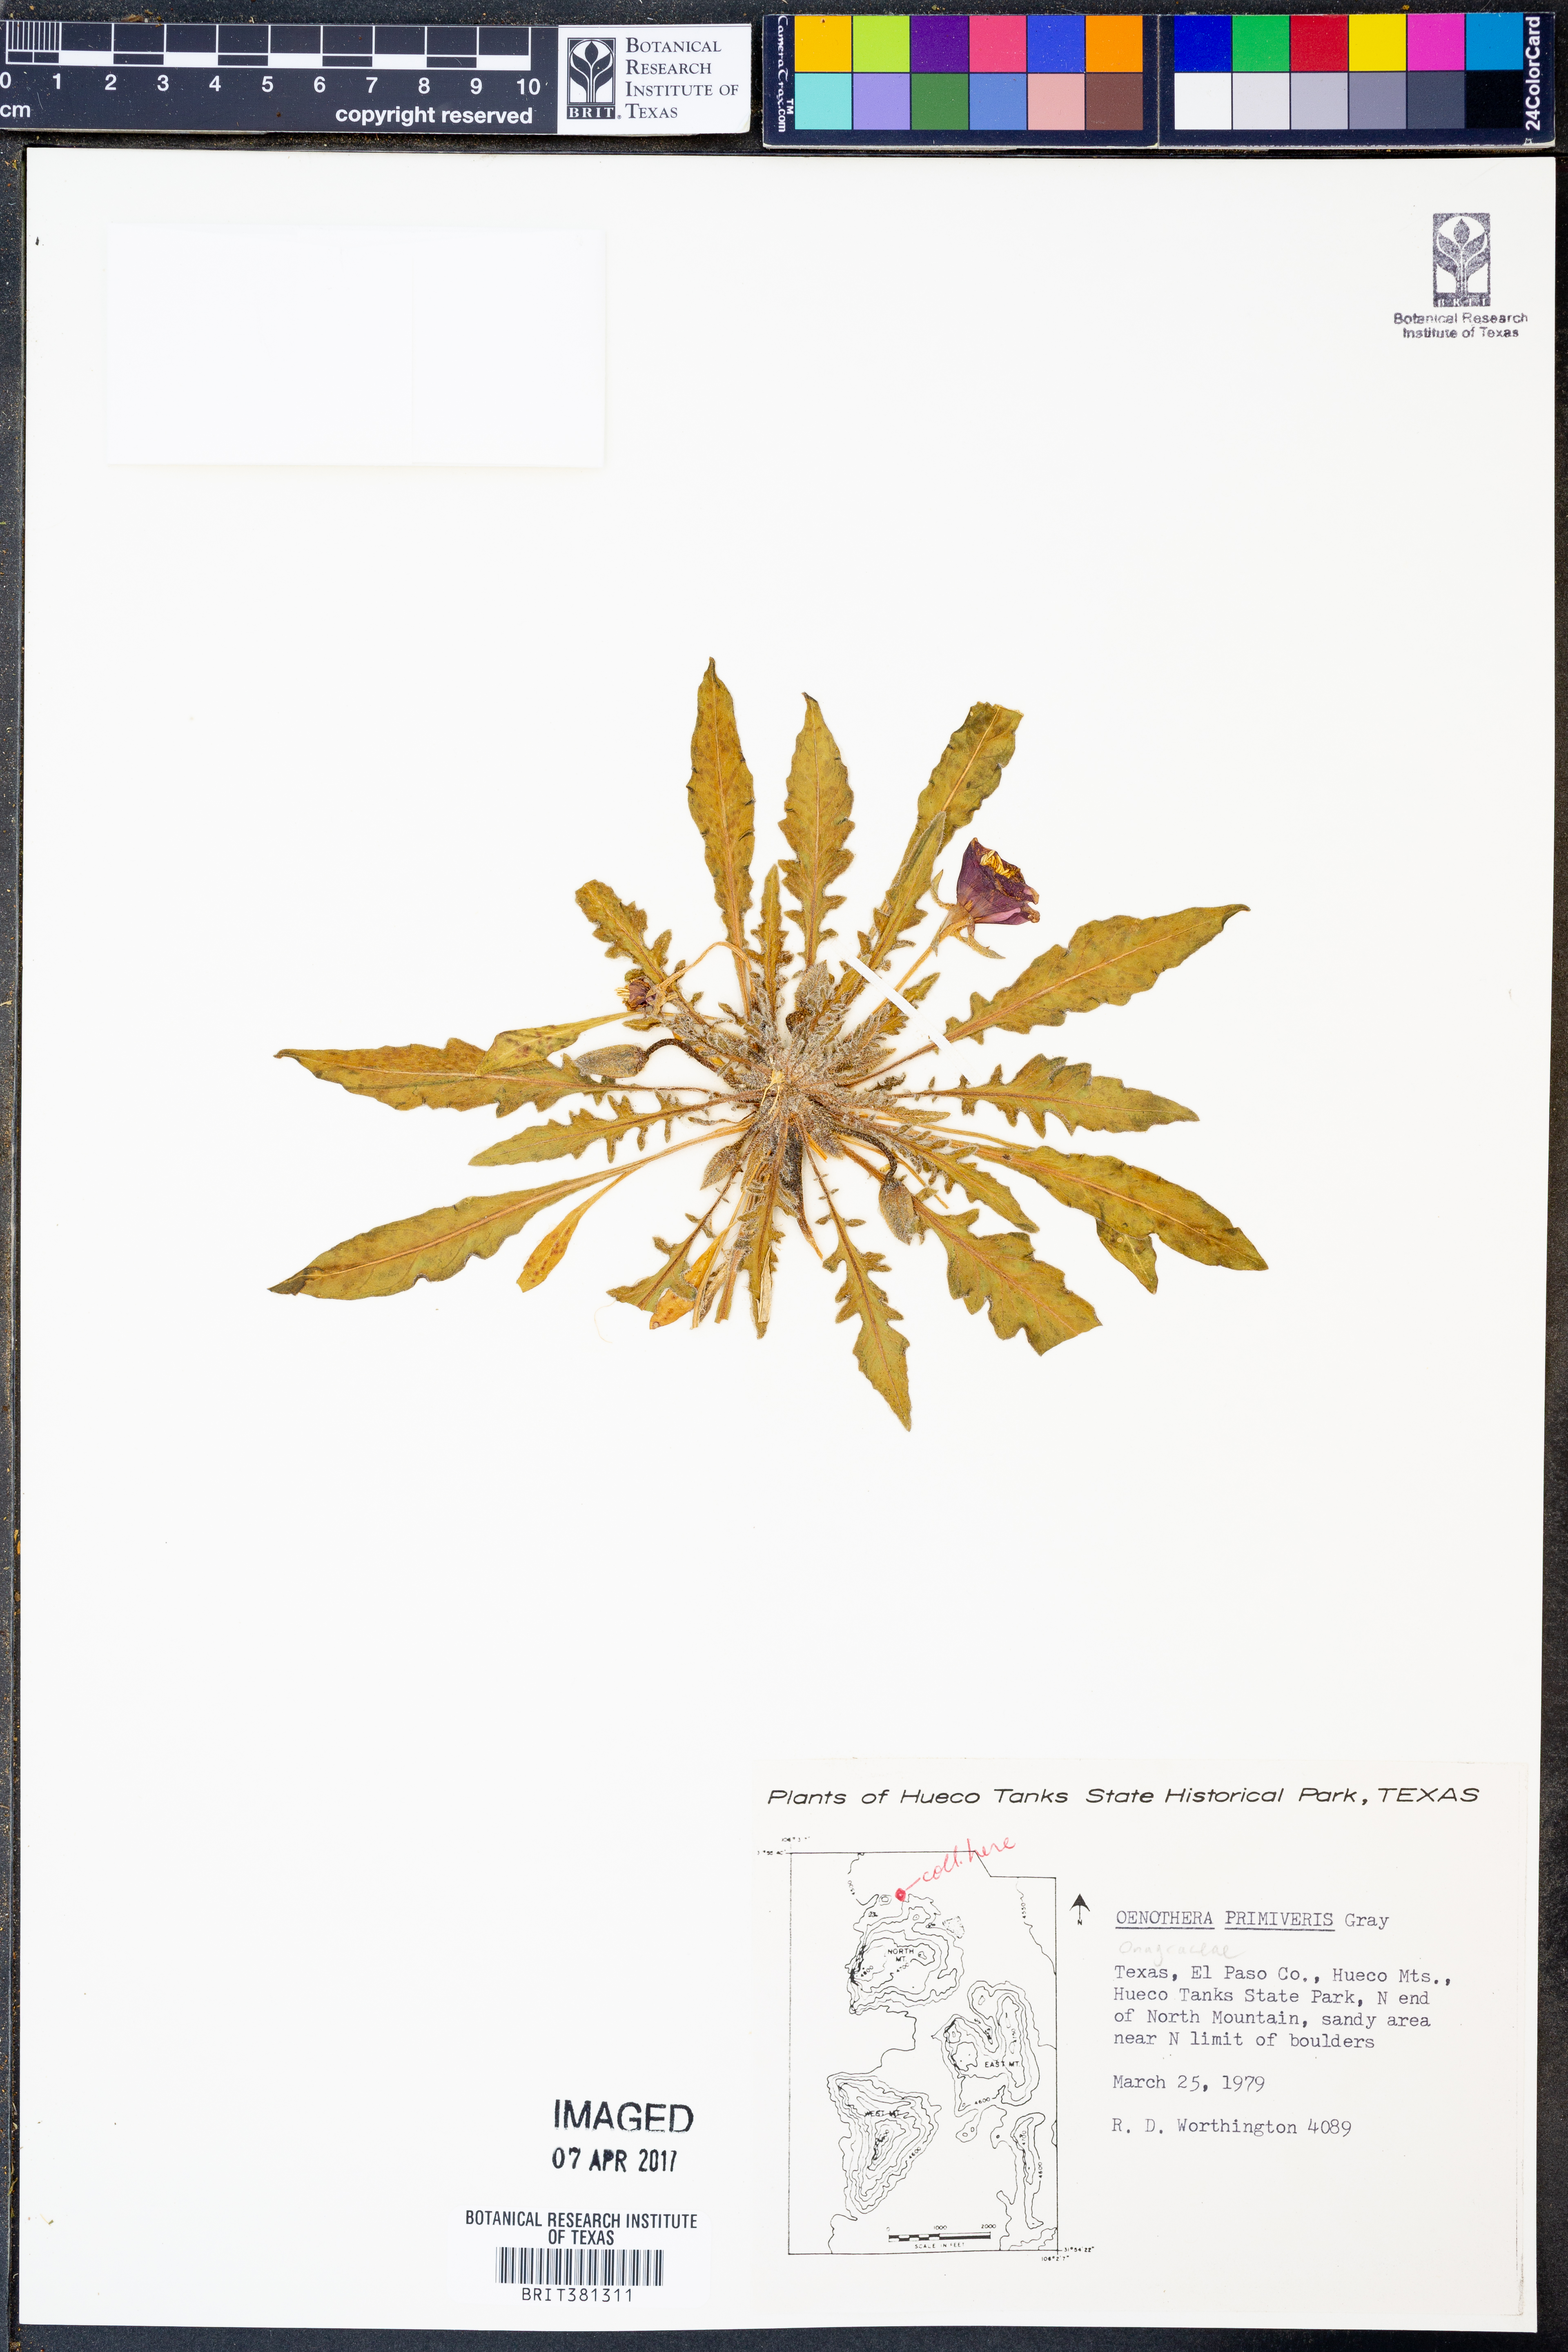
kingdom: Plantae
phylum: Tracheophyta
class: Magnoliopsida
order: Myrtales
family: Onagraceae
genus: Oenothera
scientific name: Oenothera primiveris
